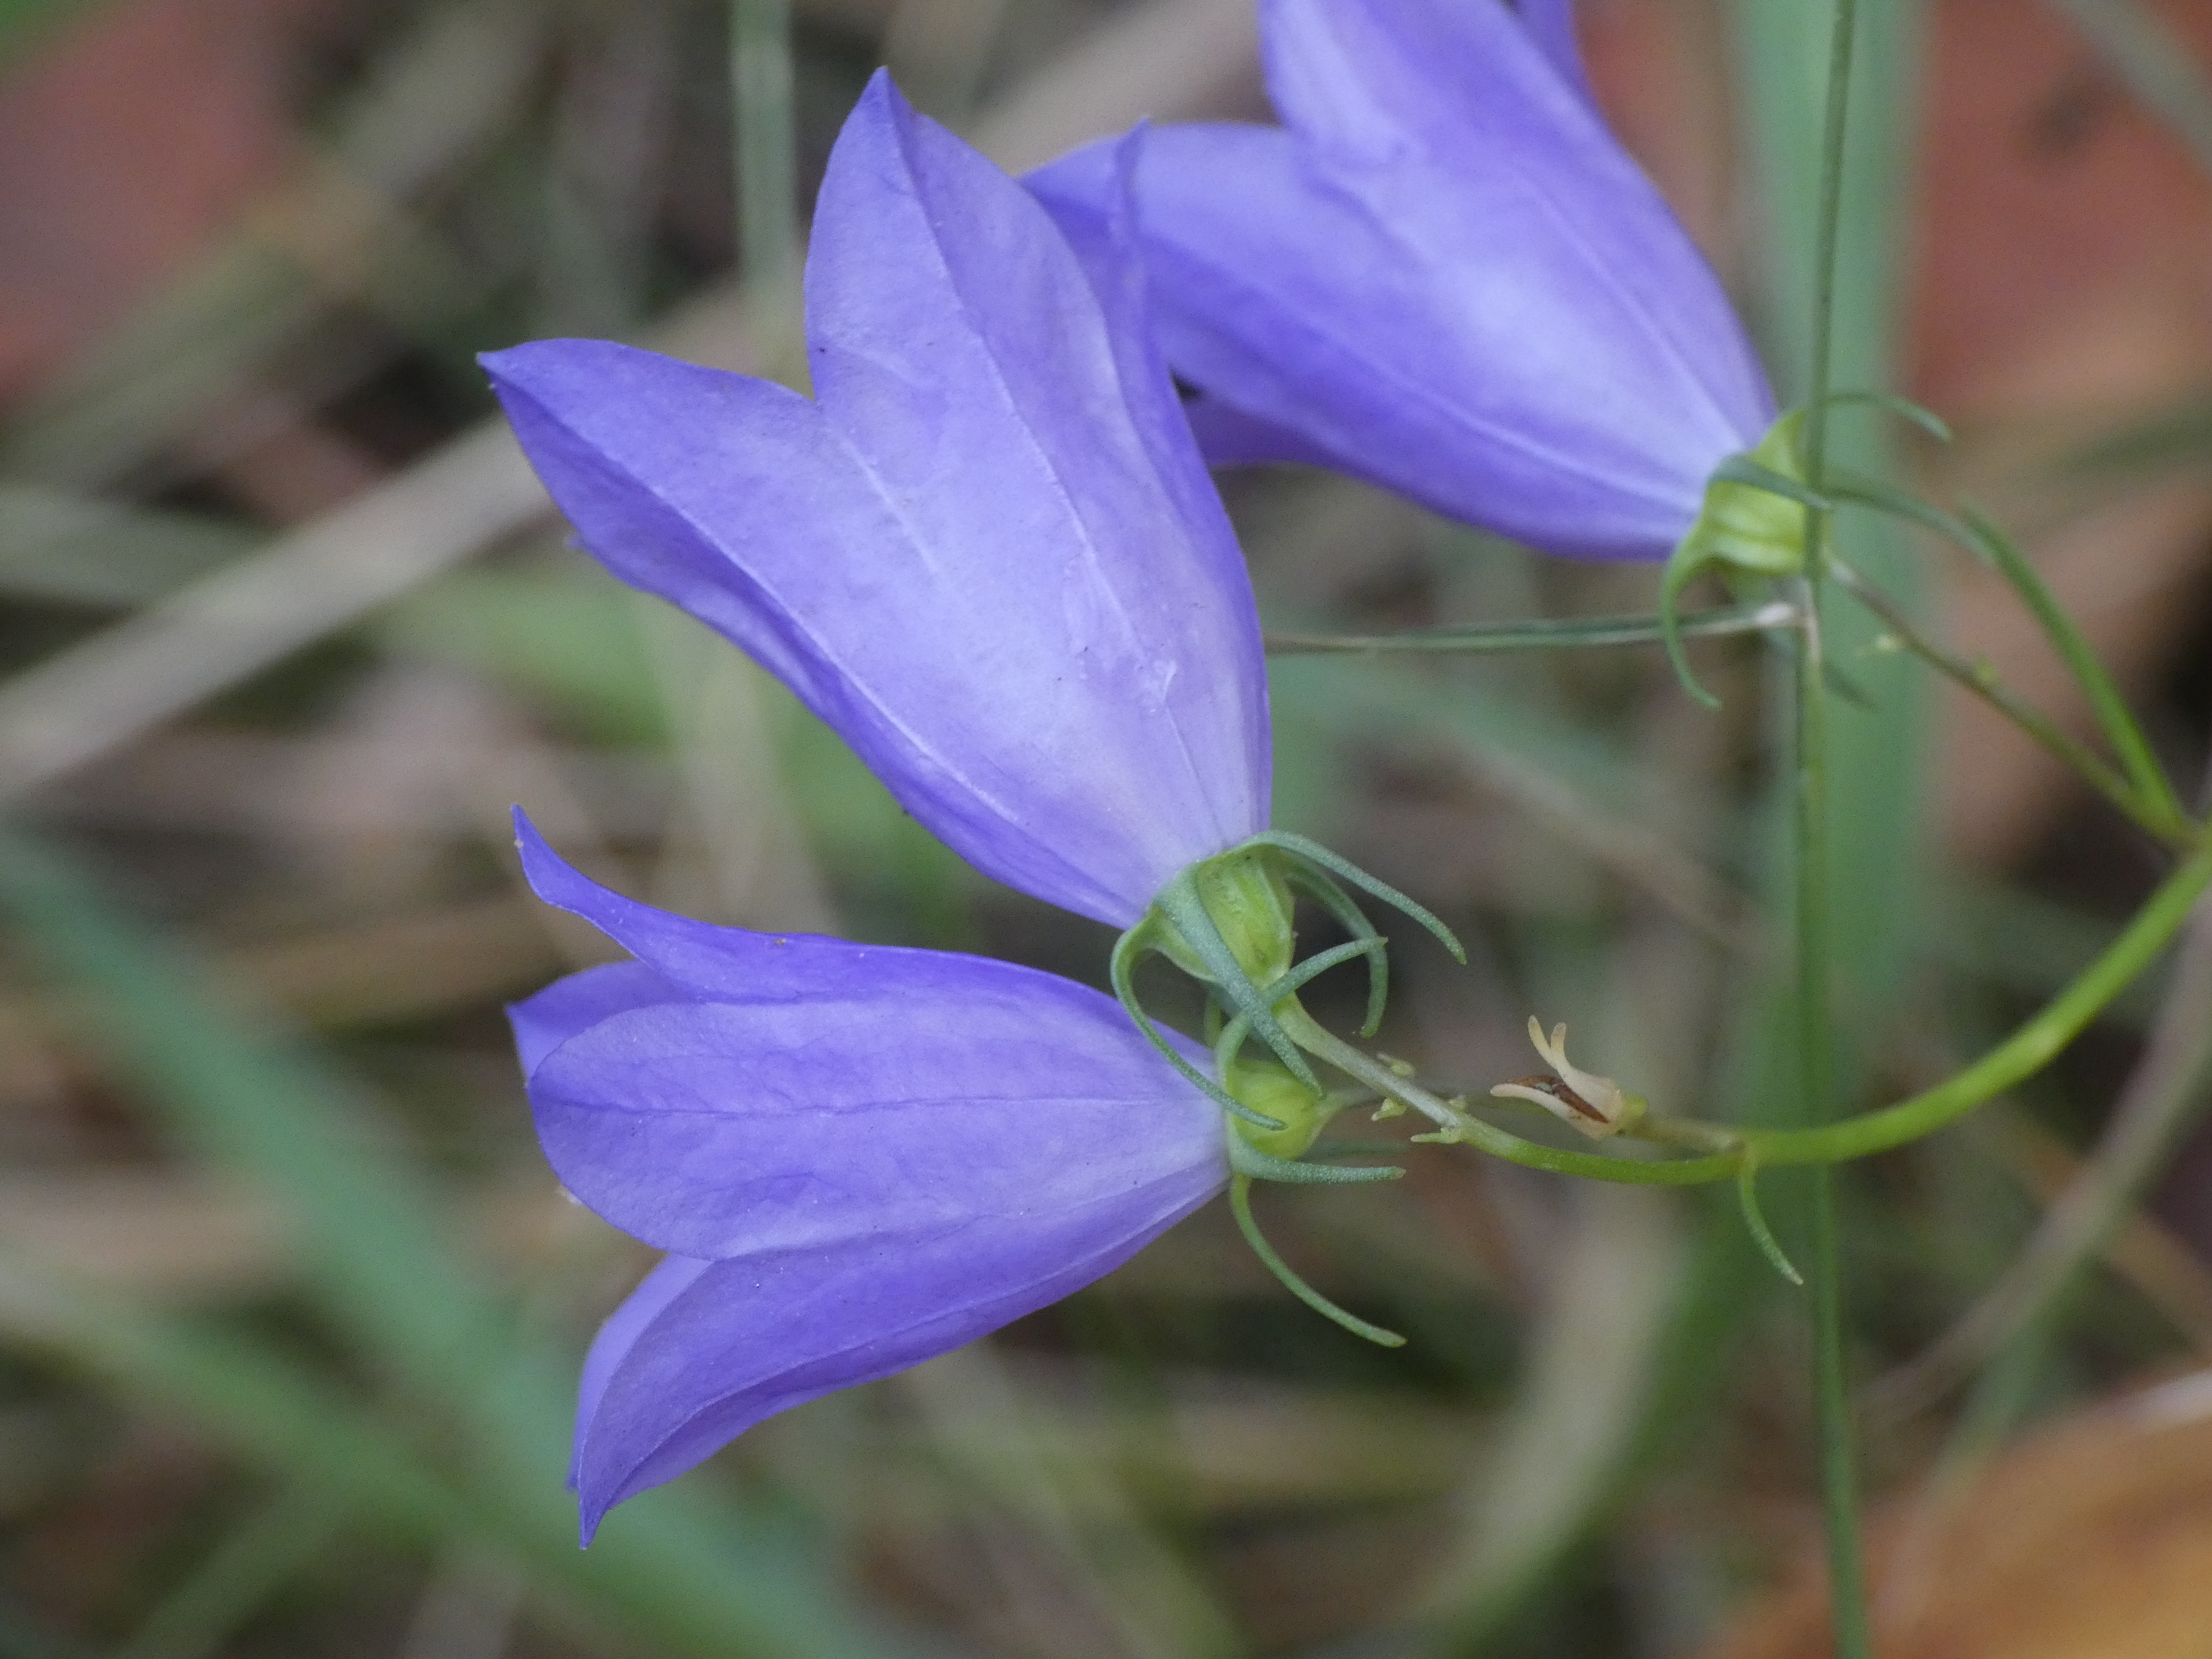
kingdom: Plantae
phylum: Tracheophyta
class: Magnoliopsida
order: Asterales
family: Campanulaceae
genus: Campanula
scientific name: Campanula rotundifolia
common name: Liden klokke
